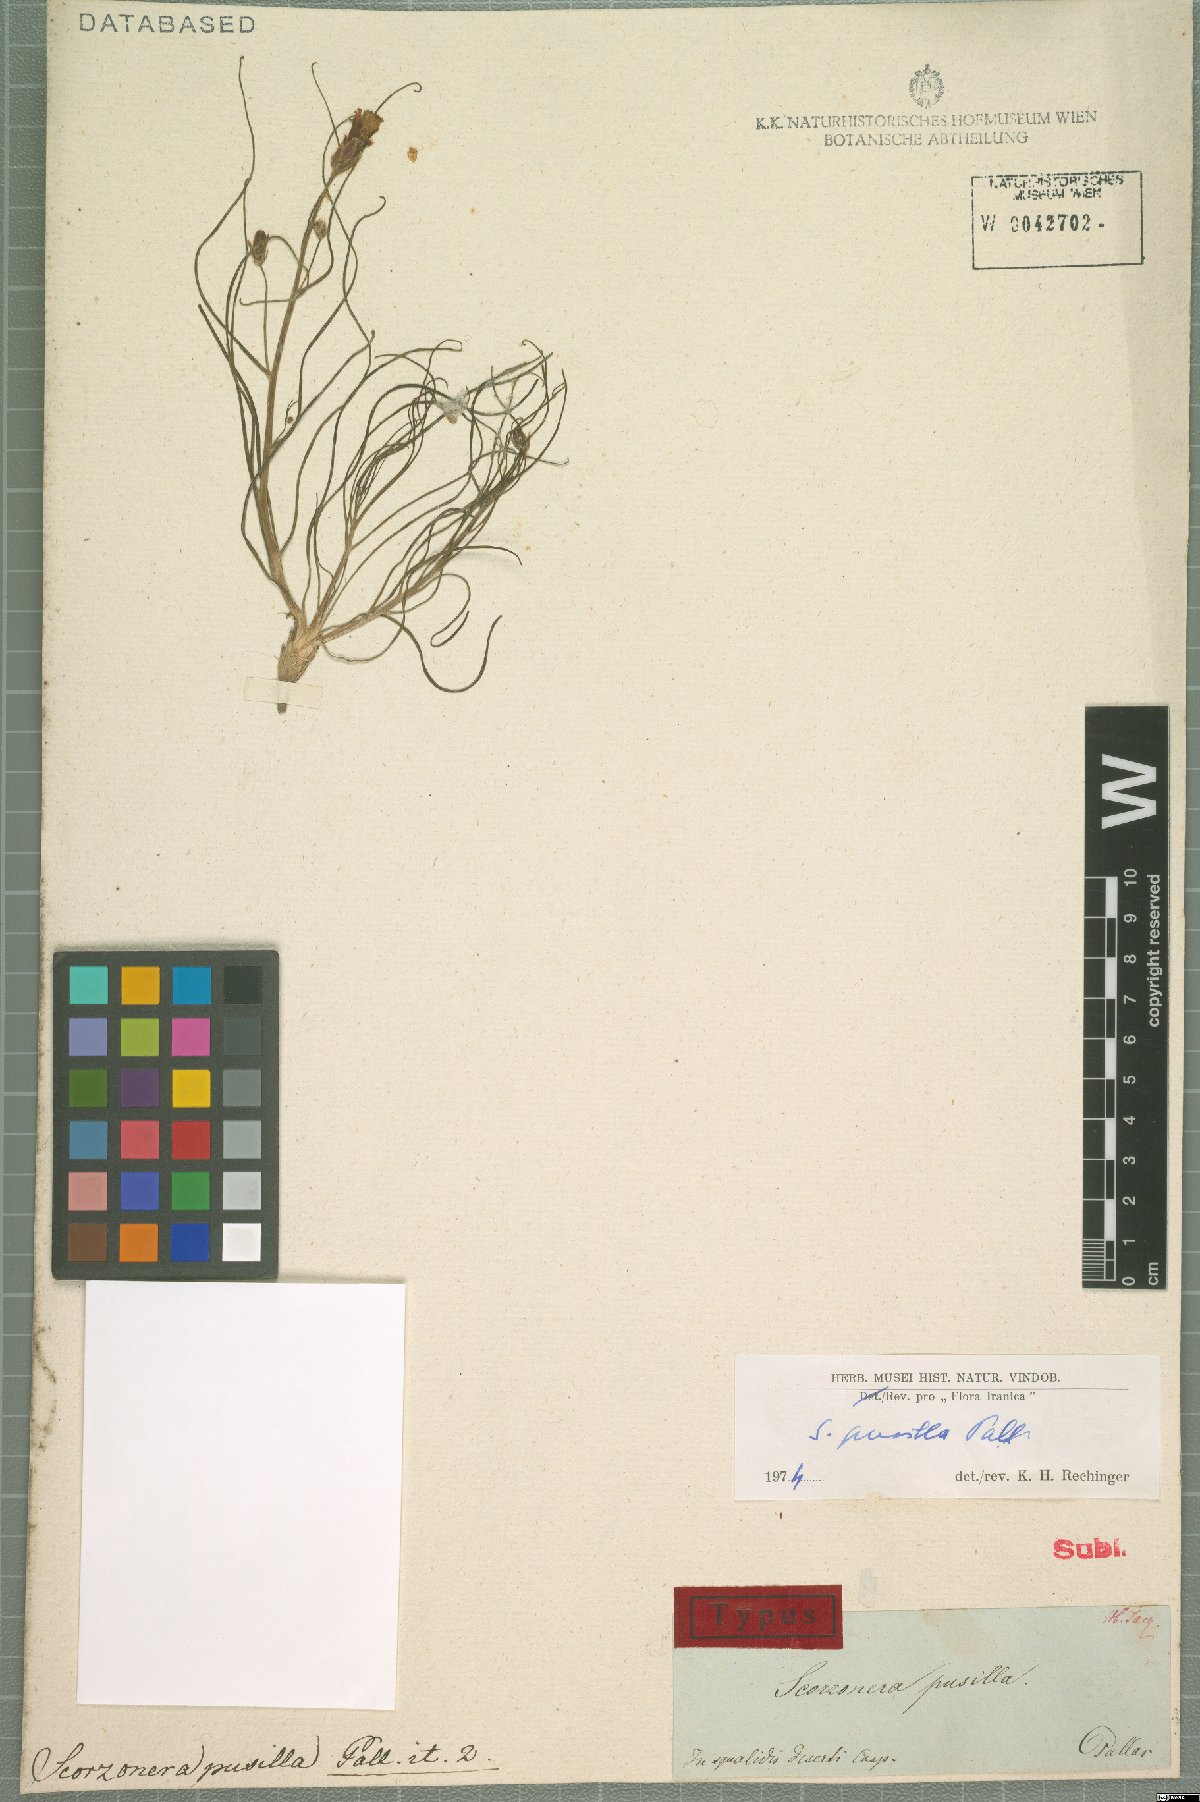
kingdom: Plantae
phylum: Tracheophyta
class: Magnoliopsida
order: Asterales
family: Asteraceae
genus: Takhtajaniantha
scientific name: Takhtajaniantha pusilla
